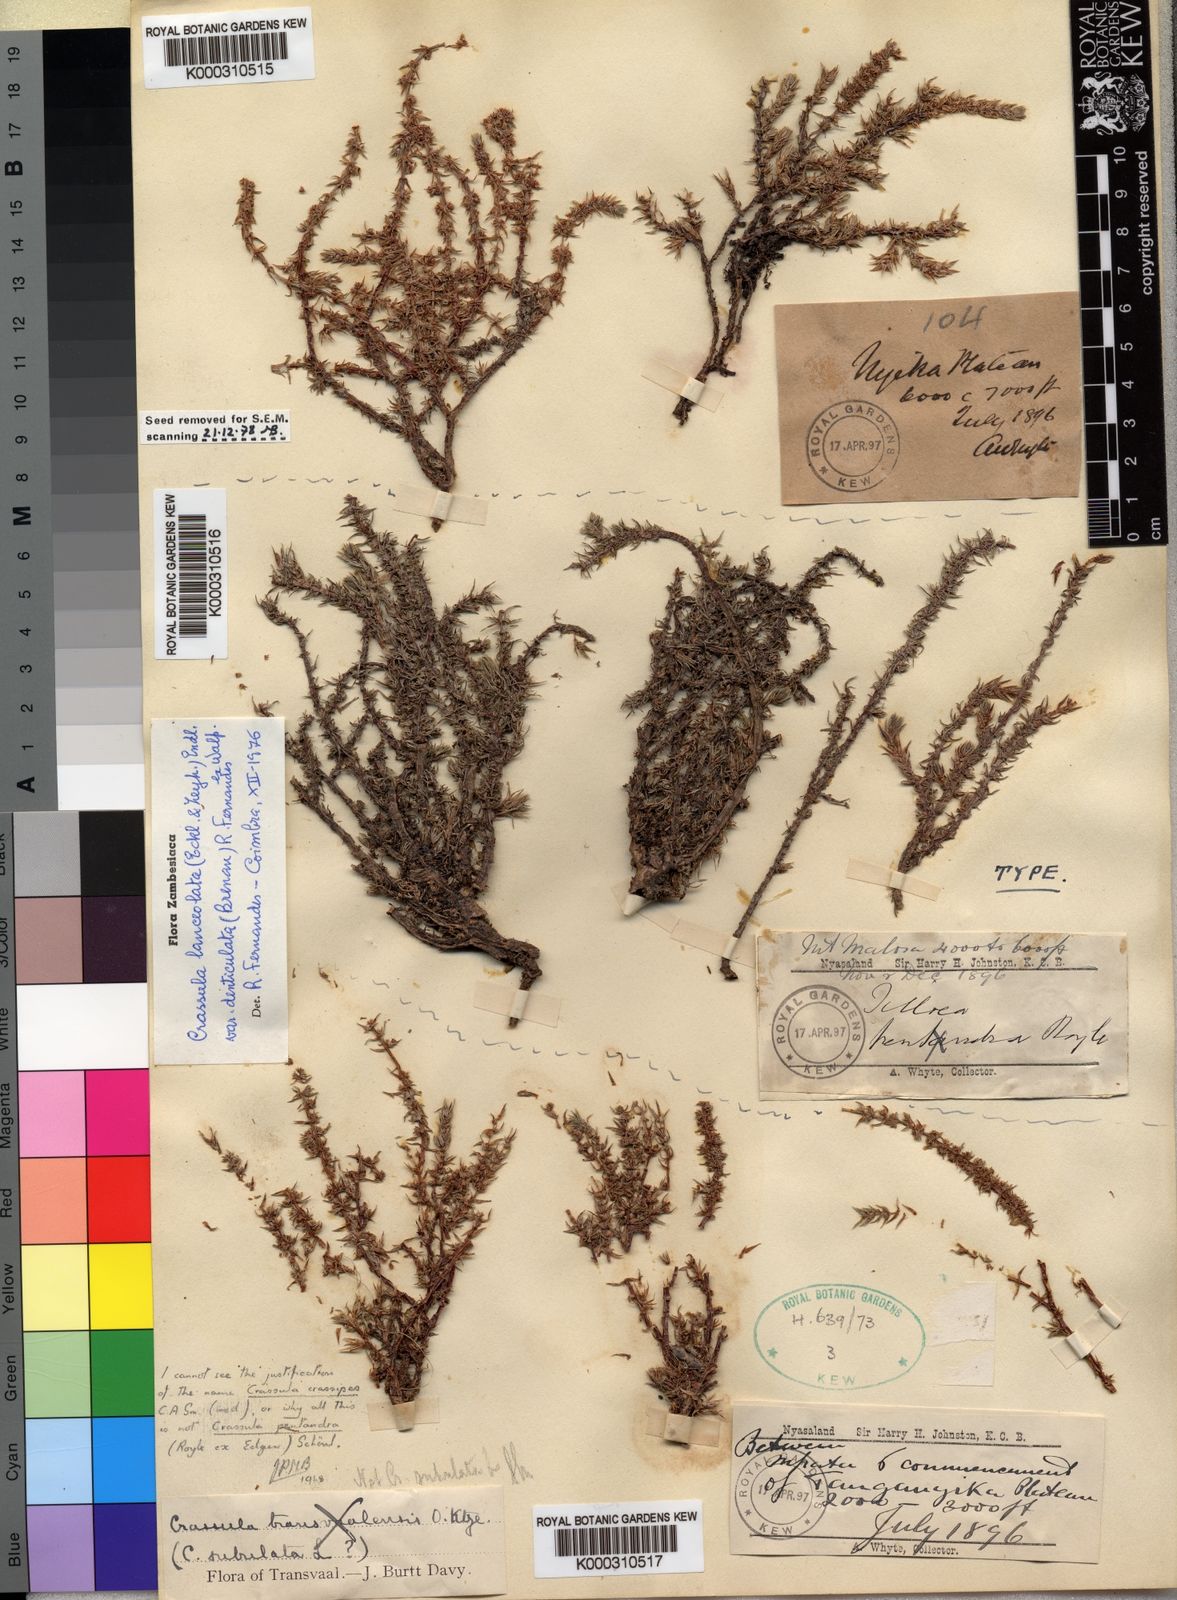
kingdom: Plantae
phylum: Tracheophyta
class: Magnoliopsida
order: Saxifragales
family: Crassulaceae
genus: Crassula
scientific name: Crassula lanceolata
